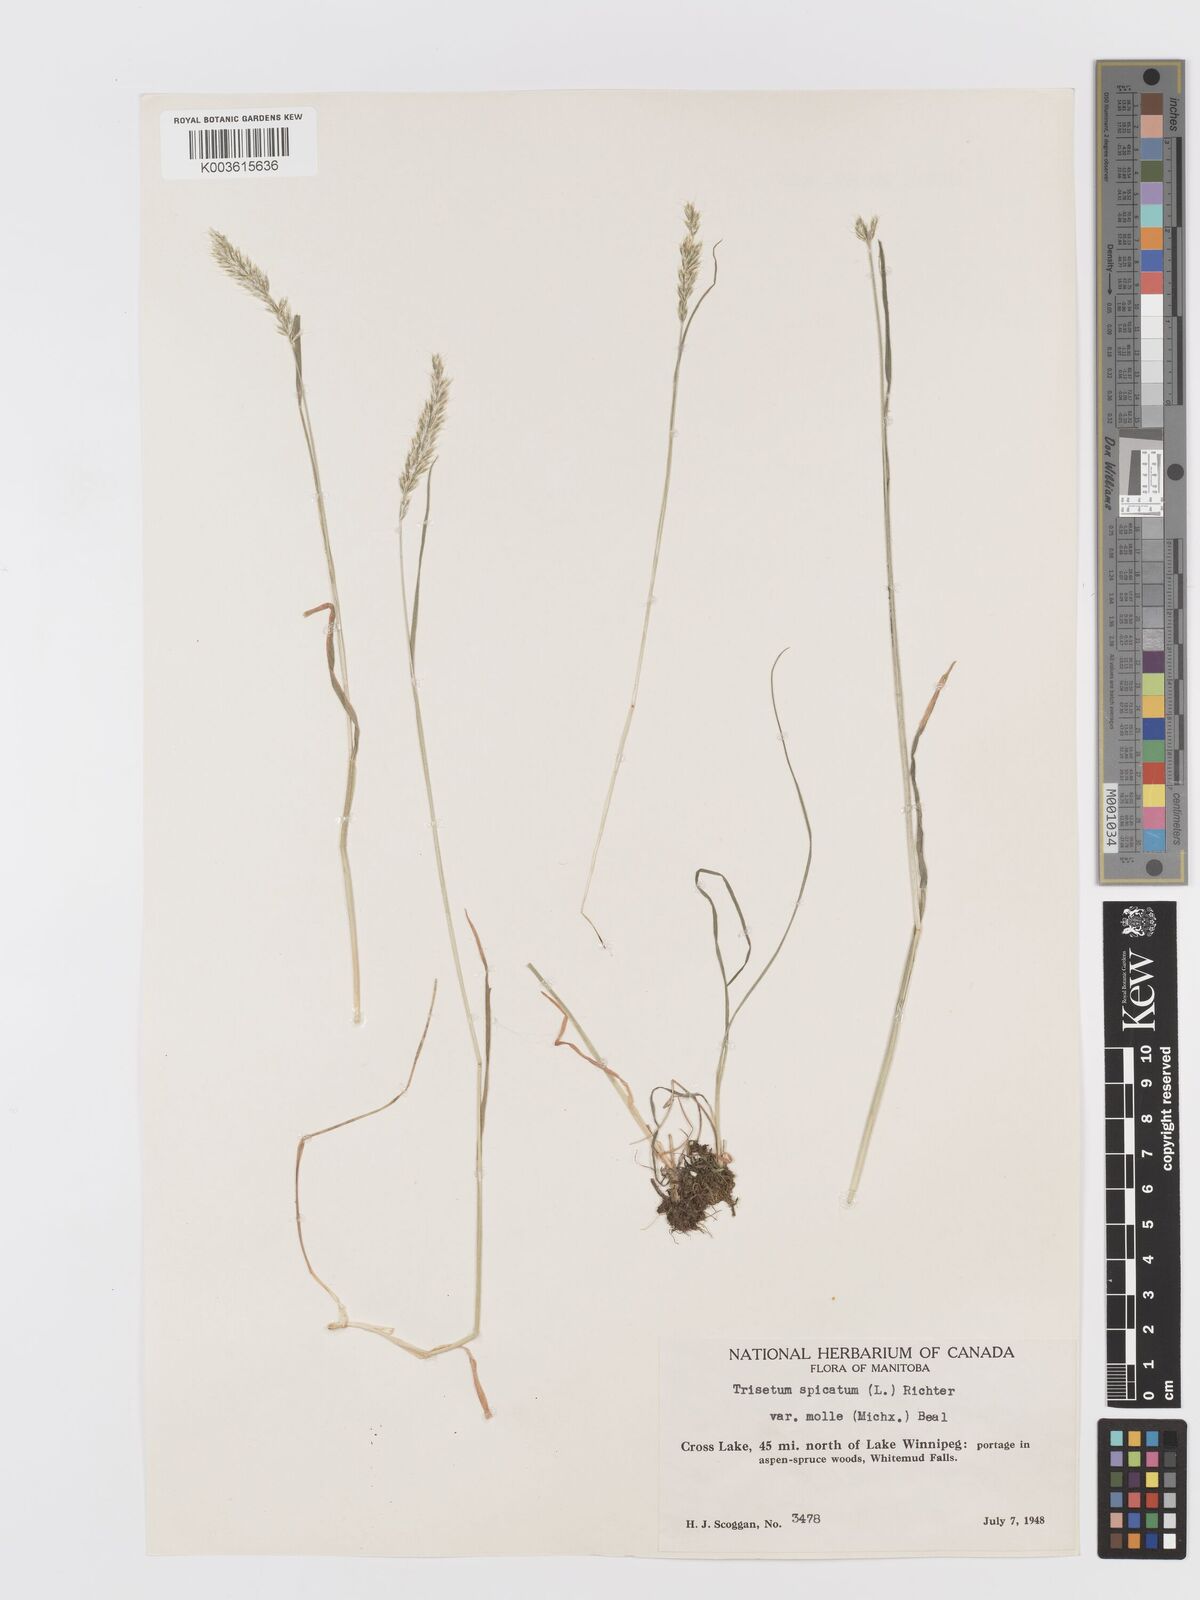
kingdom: Plantae
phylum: Tracheophyta
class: Liliopsida
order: Poales
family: Poaceae
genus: Koeleria
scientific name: Koeleria spicata
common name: Mountain trisetum
